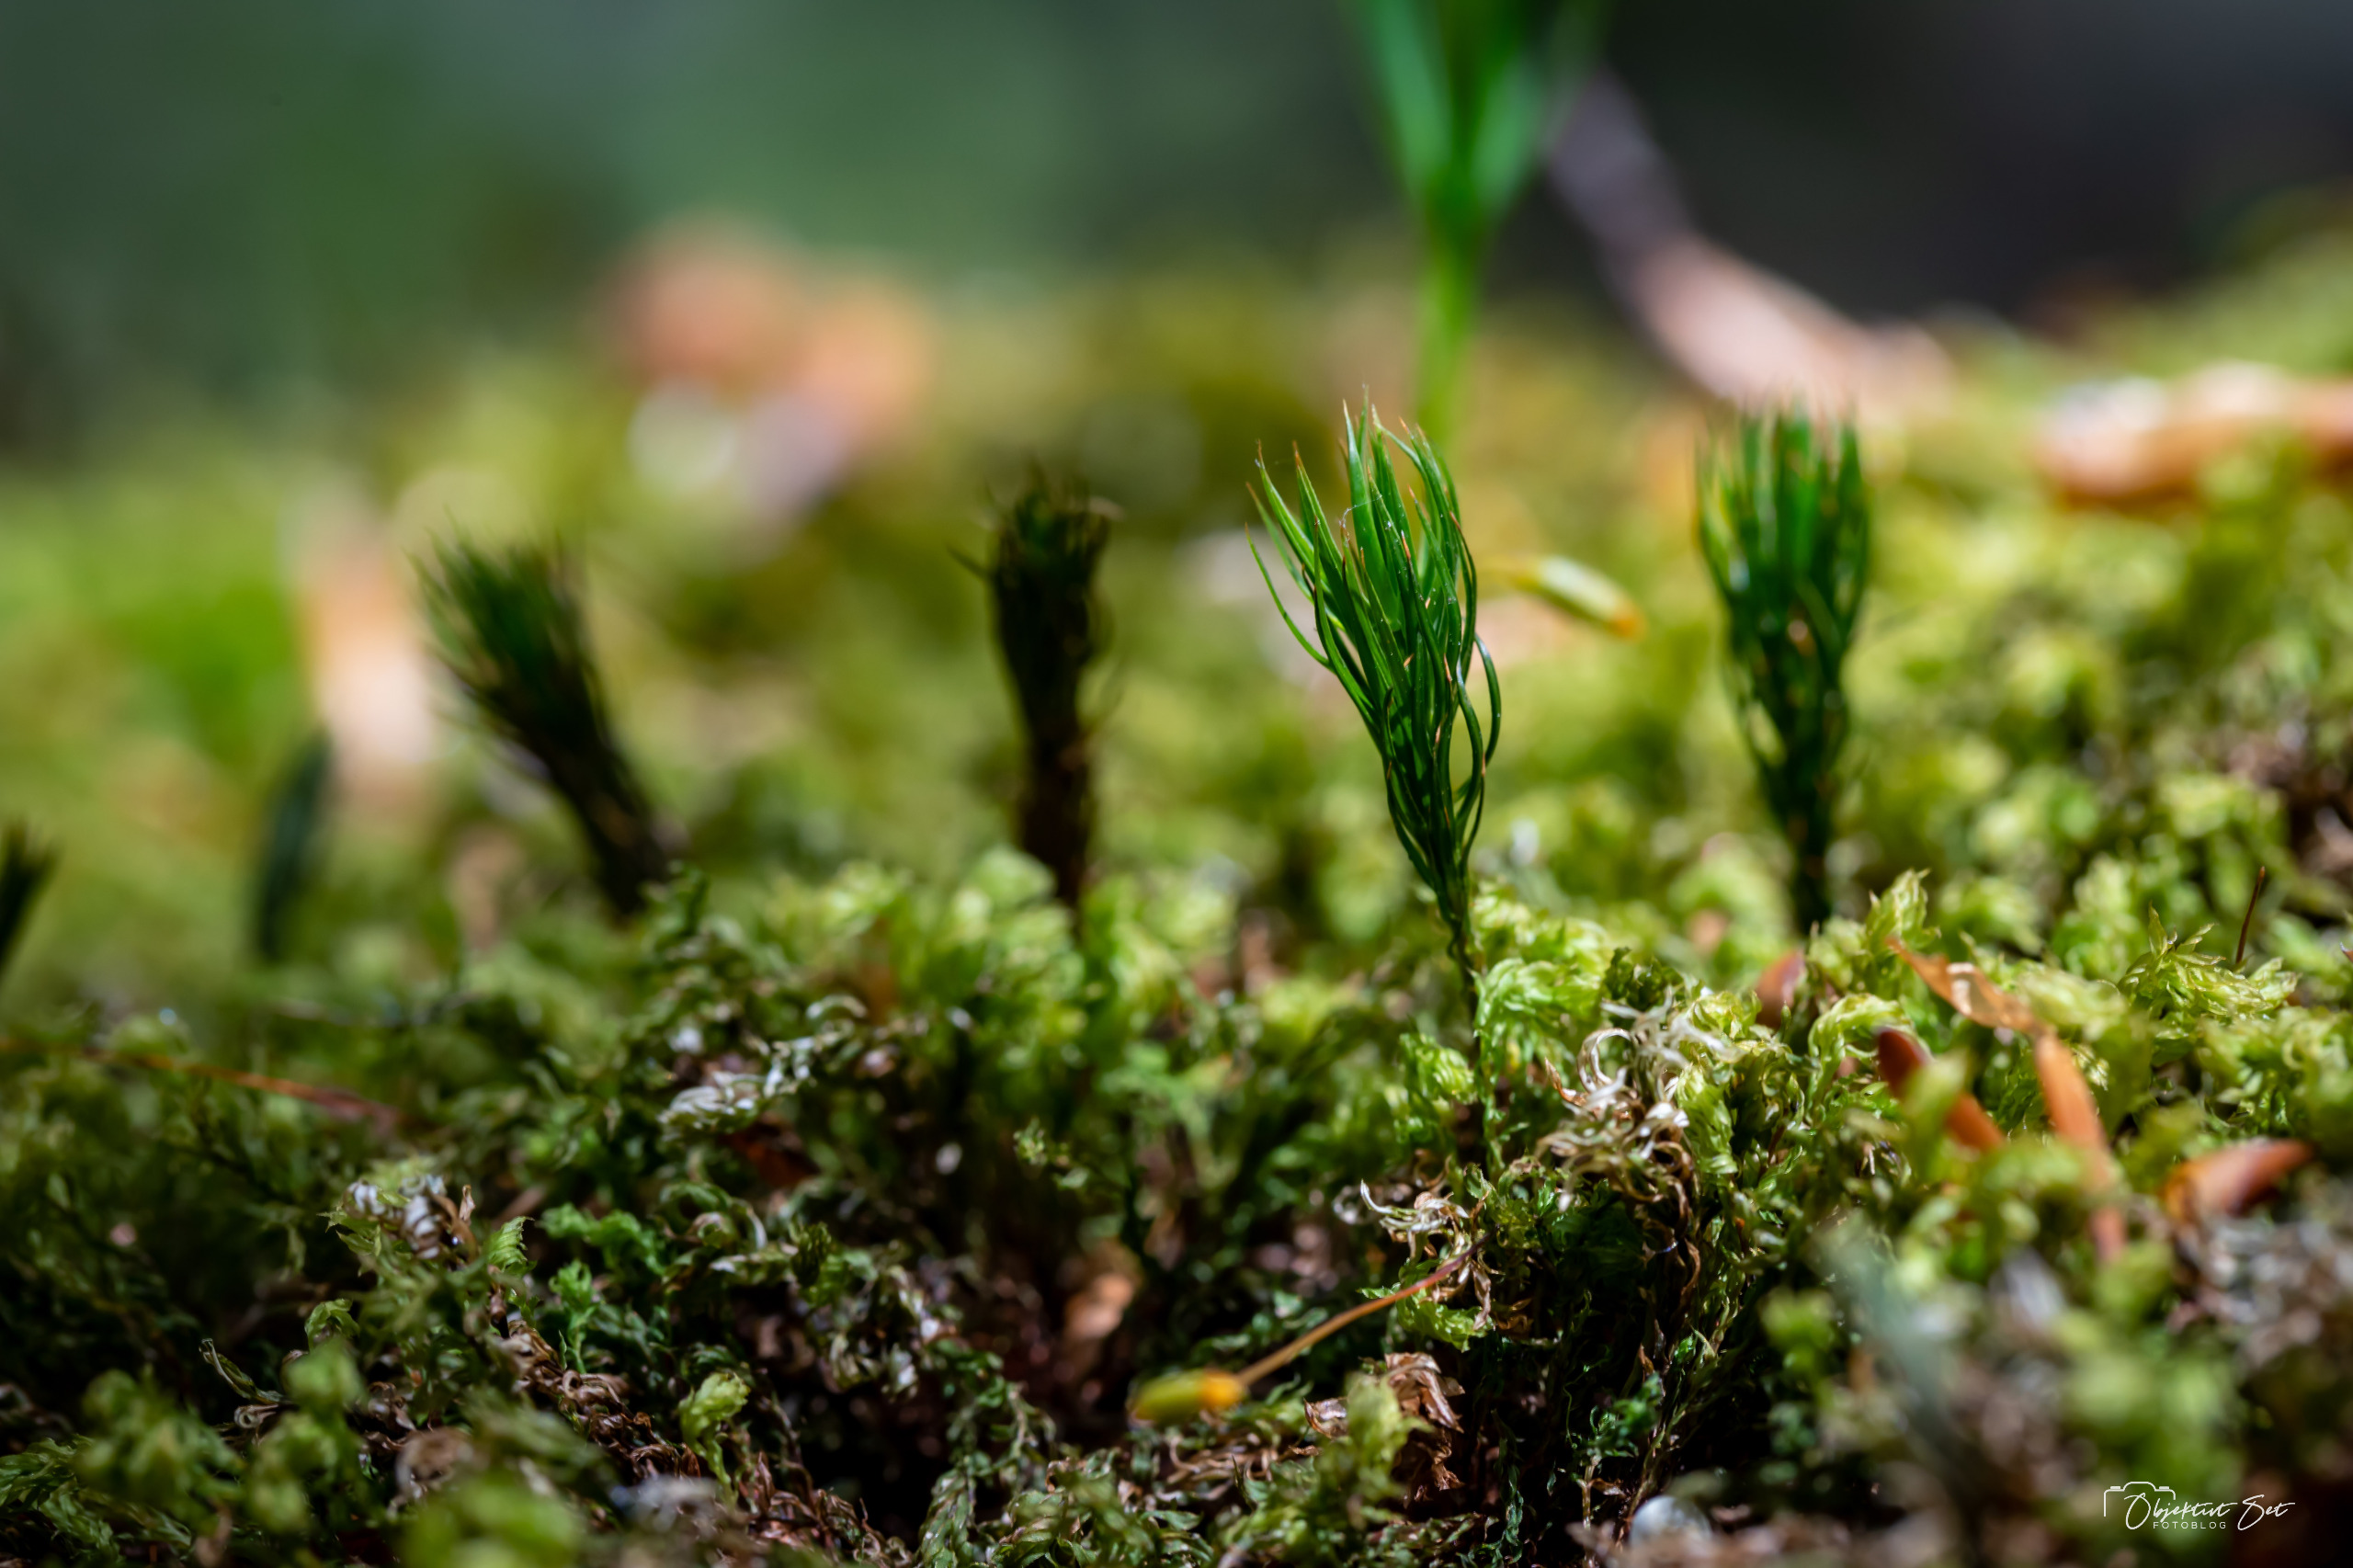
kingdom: Plantae
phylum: Bryophyta
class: Polytrichopsida
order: Polytrichales
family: Polytrichaceae
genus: Polytrichum
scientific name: Polytrichum
